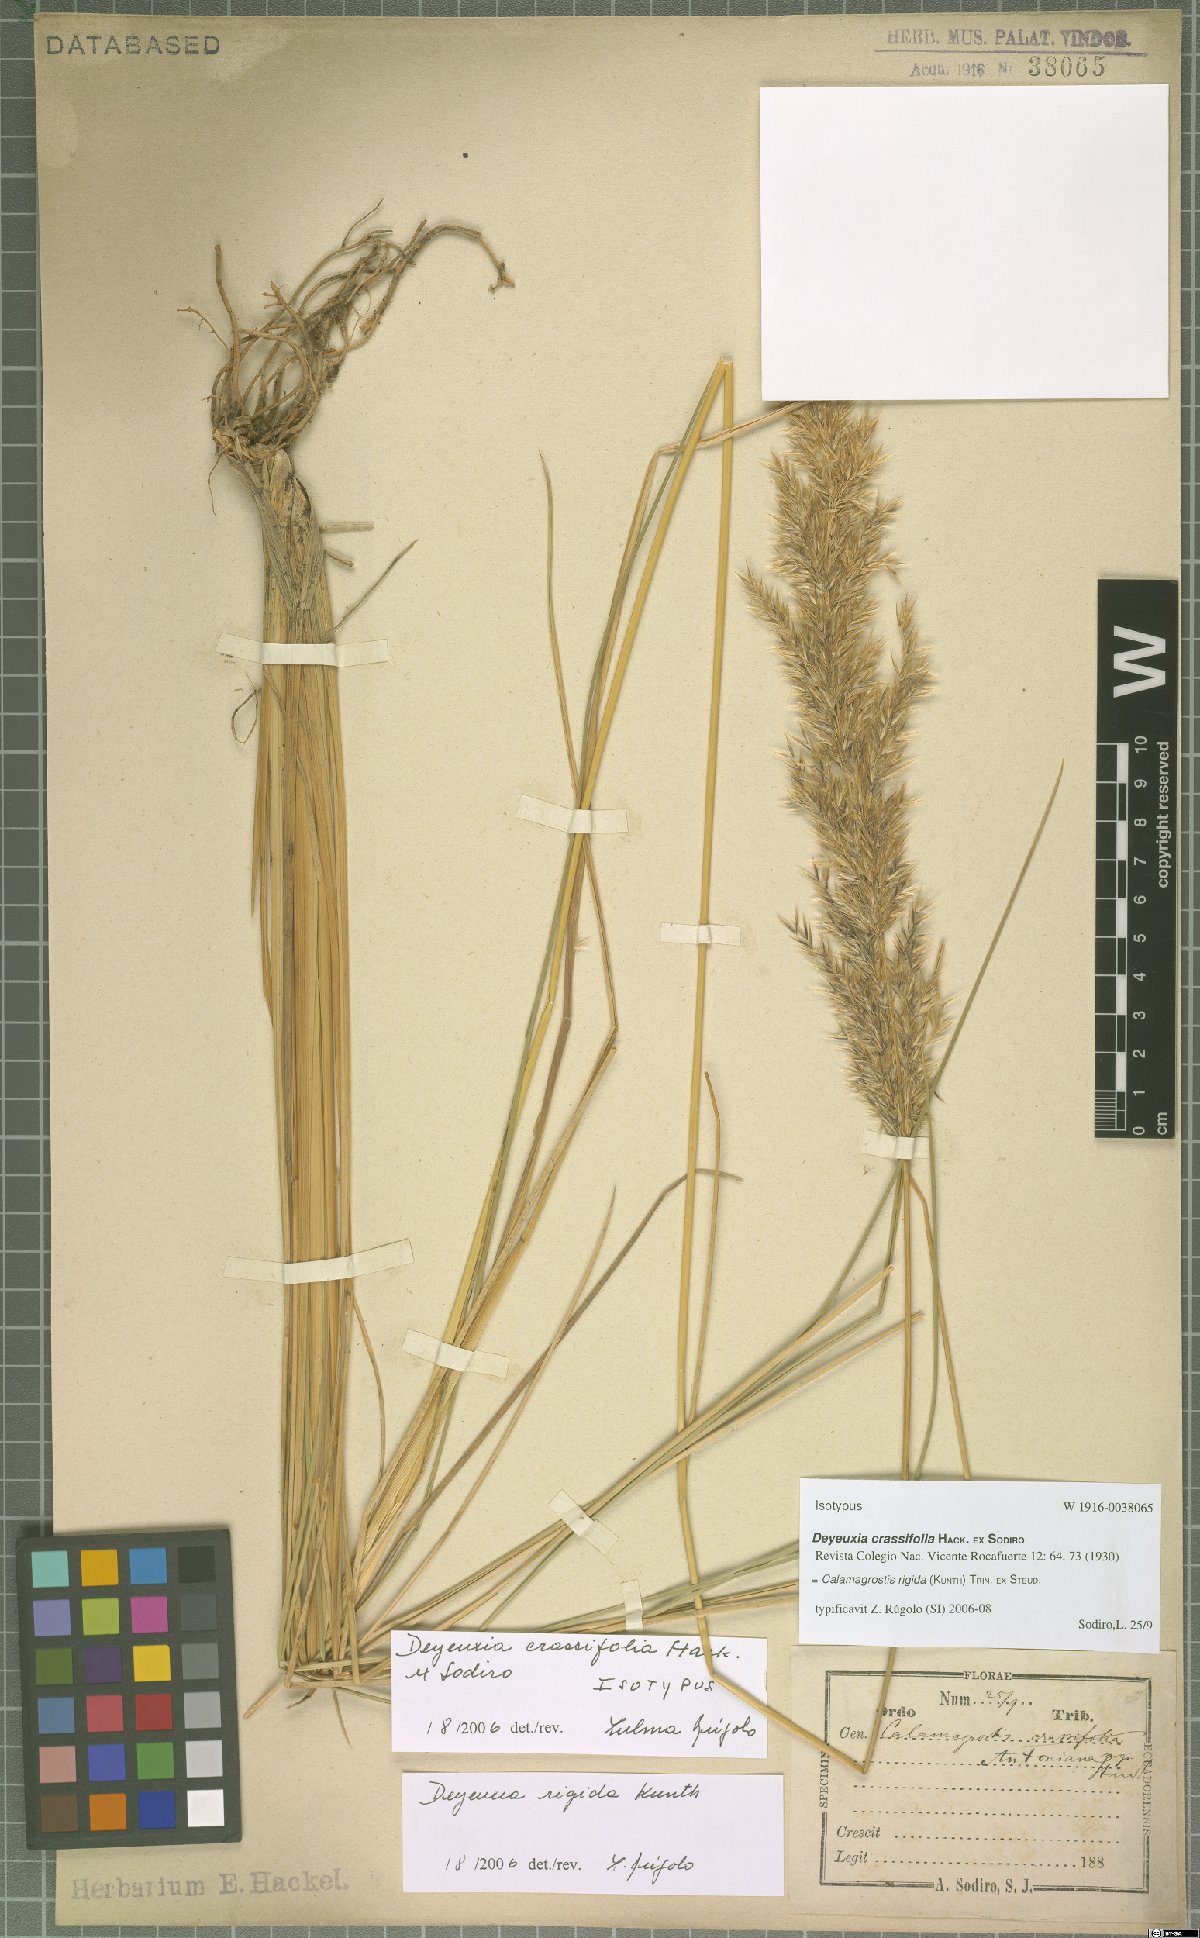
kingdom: Plantae
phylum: Tracheophyta
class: Liliopsida
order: Poales
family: Poaceae
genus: Cinnagrostis
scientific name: Cinnagrostis rigida
